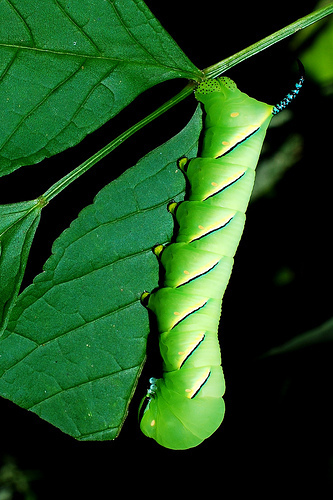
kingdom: Animalia
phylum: Arthropoda
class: Insecta
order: Lepidoptera
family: Sphingidae
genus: Sphinx
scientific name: Sphinx kalmiae
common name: Laurel sphinx
